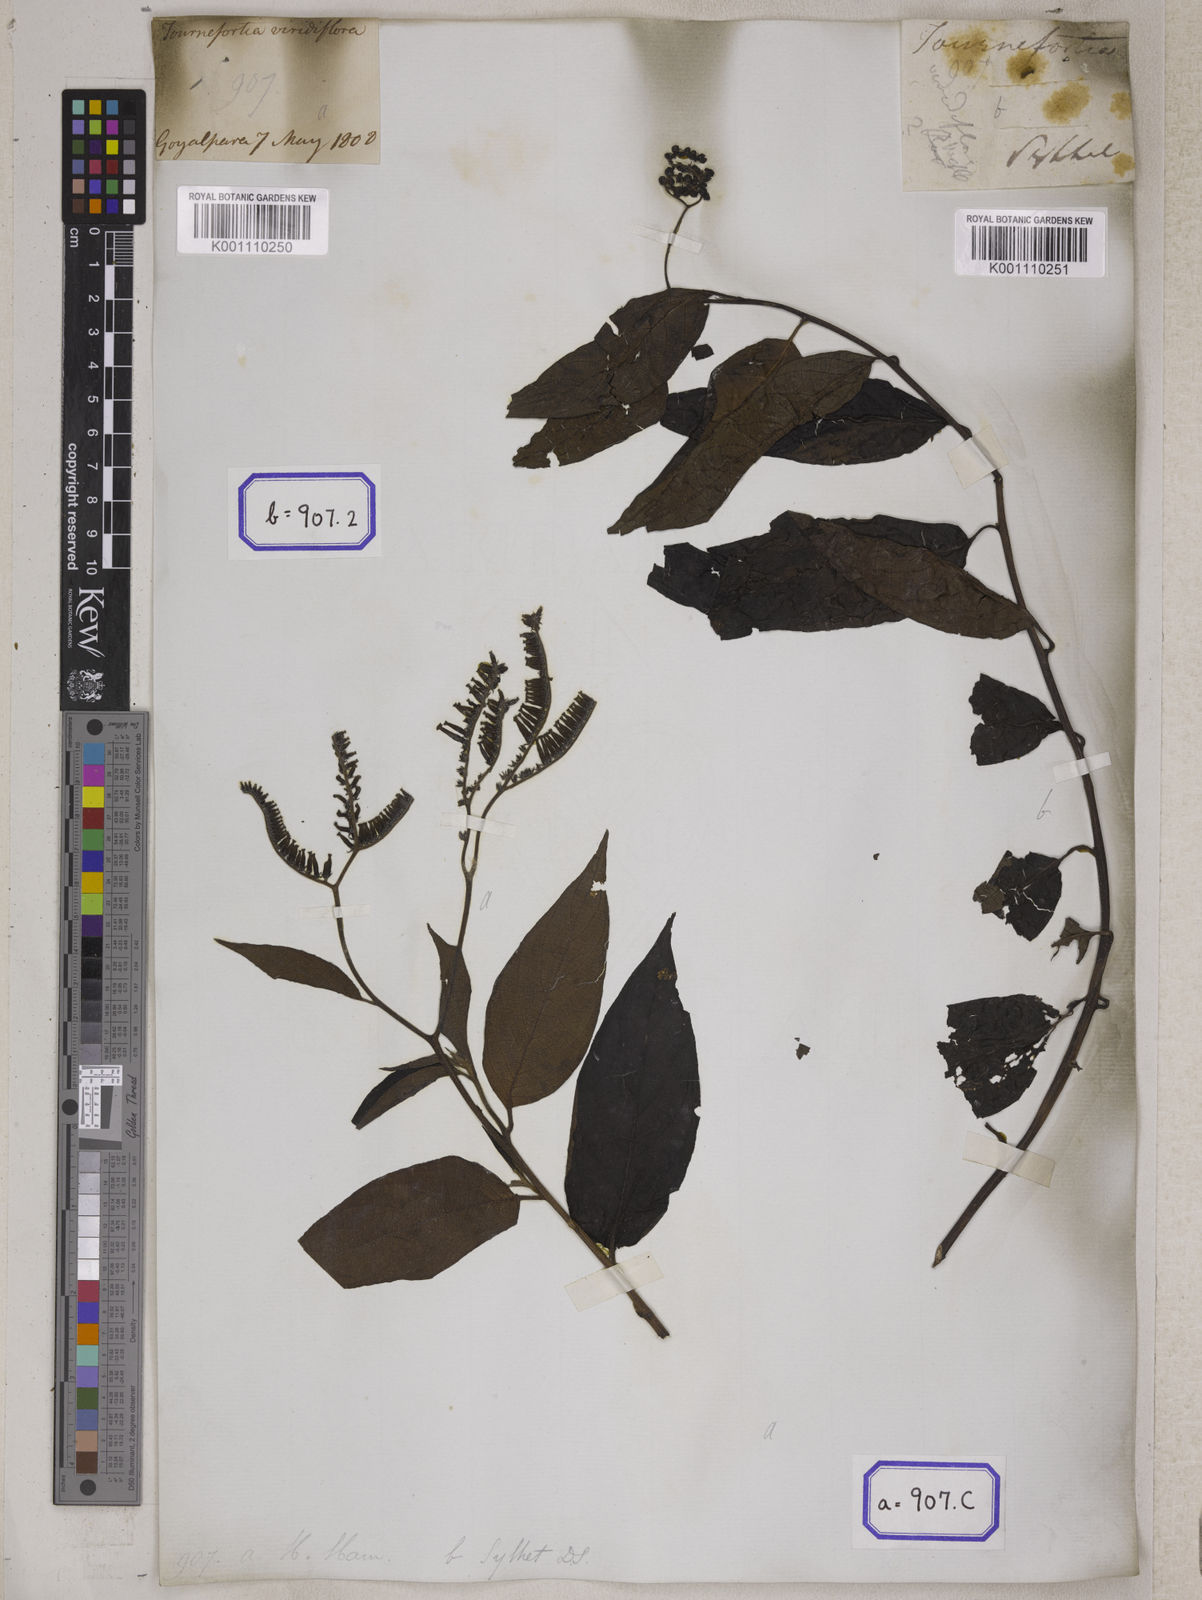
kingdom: Plantae
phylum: Tracheophyta
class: Magnoliopsida
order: Boraginales
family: Heliotropiaceae
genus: Tournefortia
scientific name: Tournefortia montana
